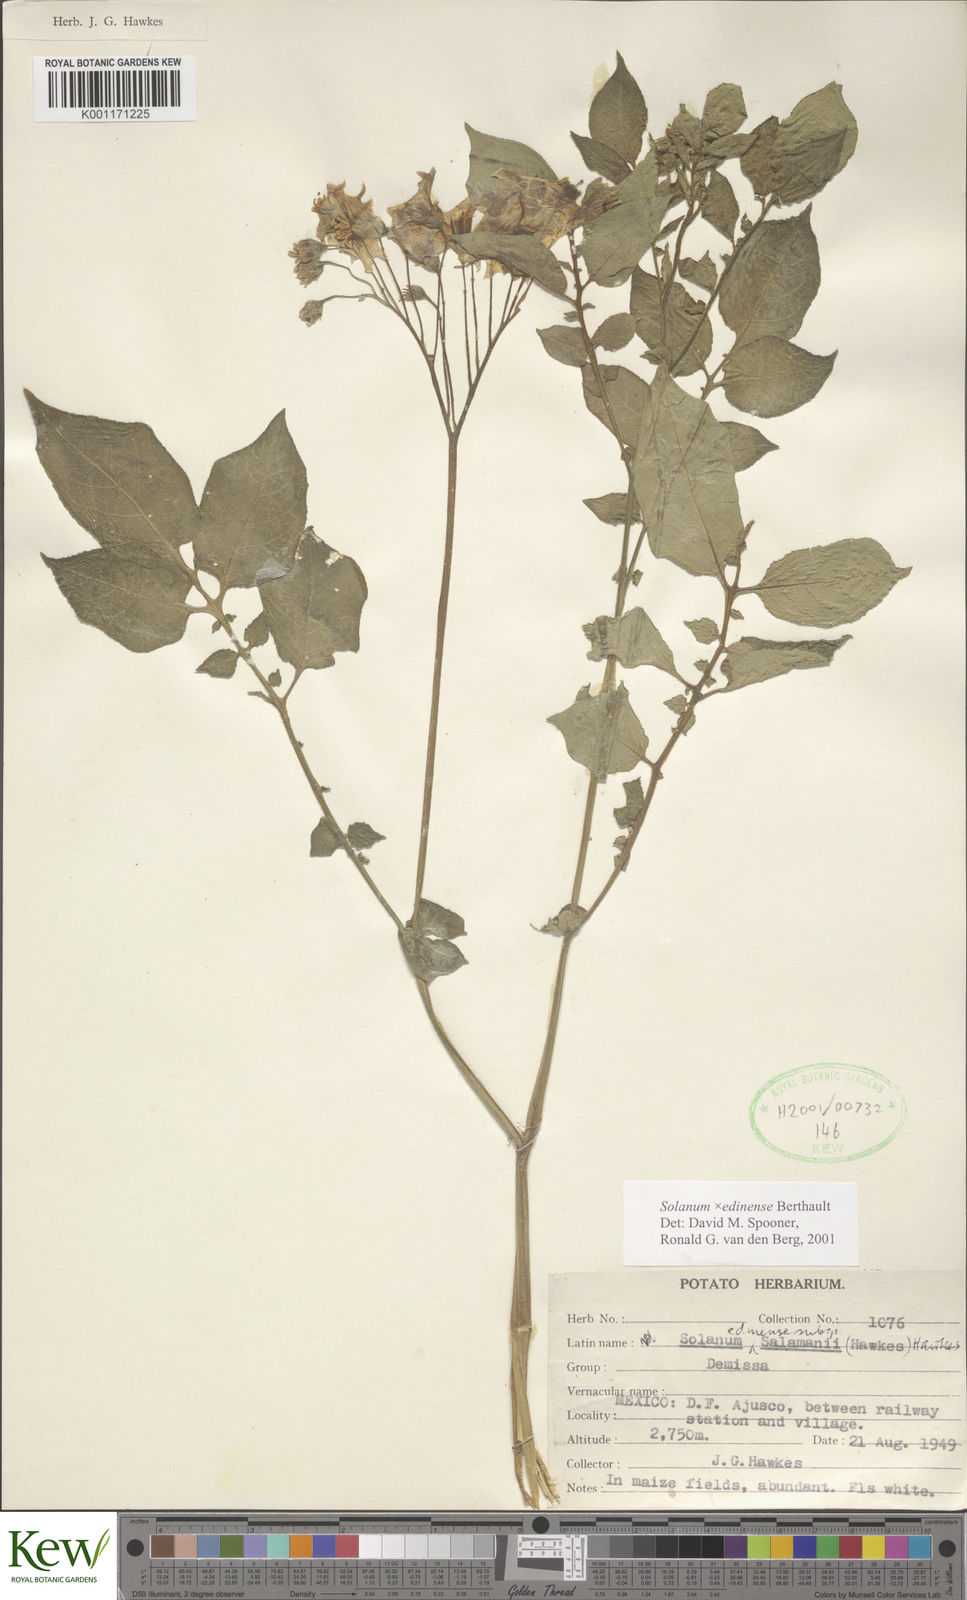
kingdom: Plantae
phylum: Tracheophyta
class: Magnoliopsida
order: Solanales
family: Solanaceae
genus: Solanum
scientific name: Solanum edinense
